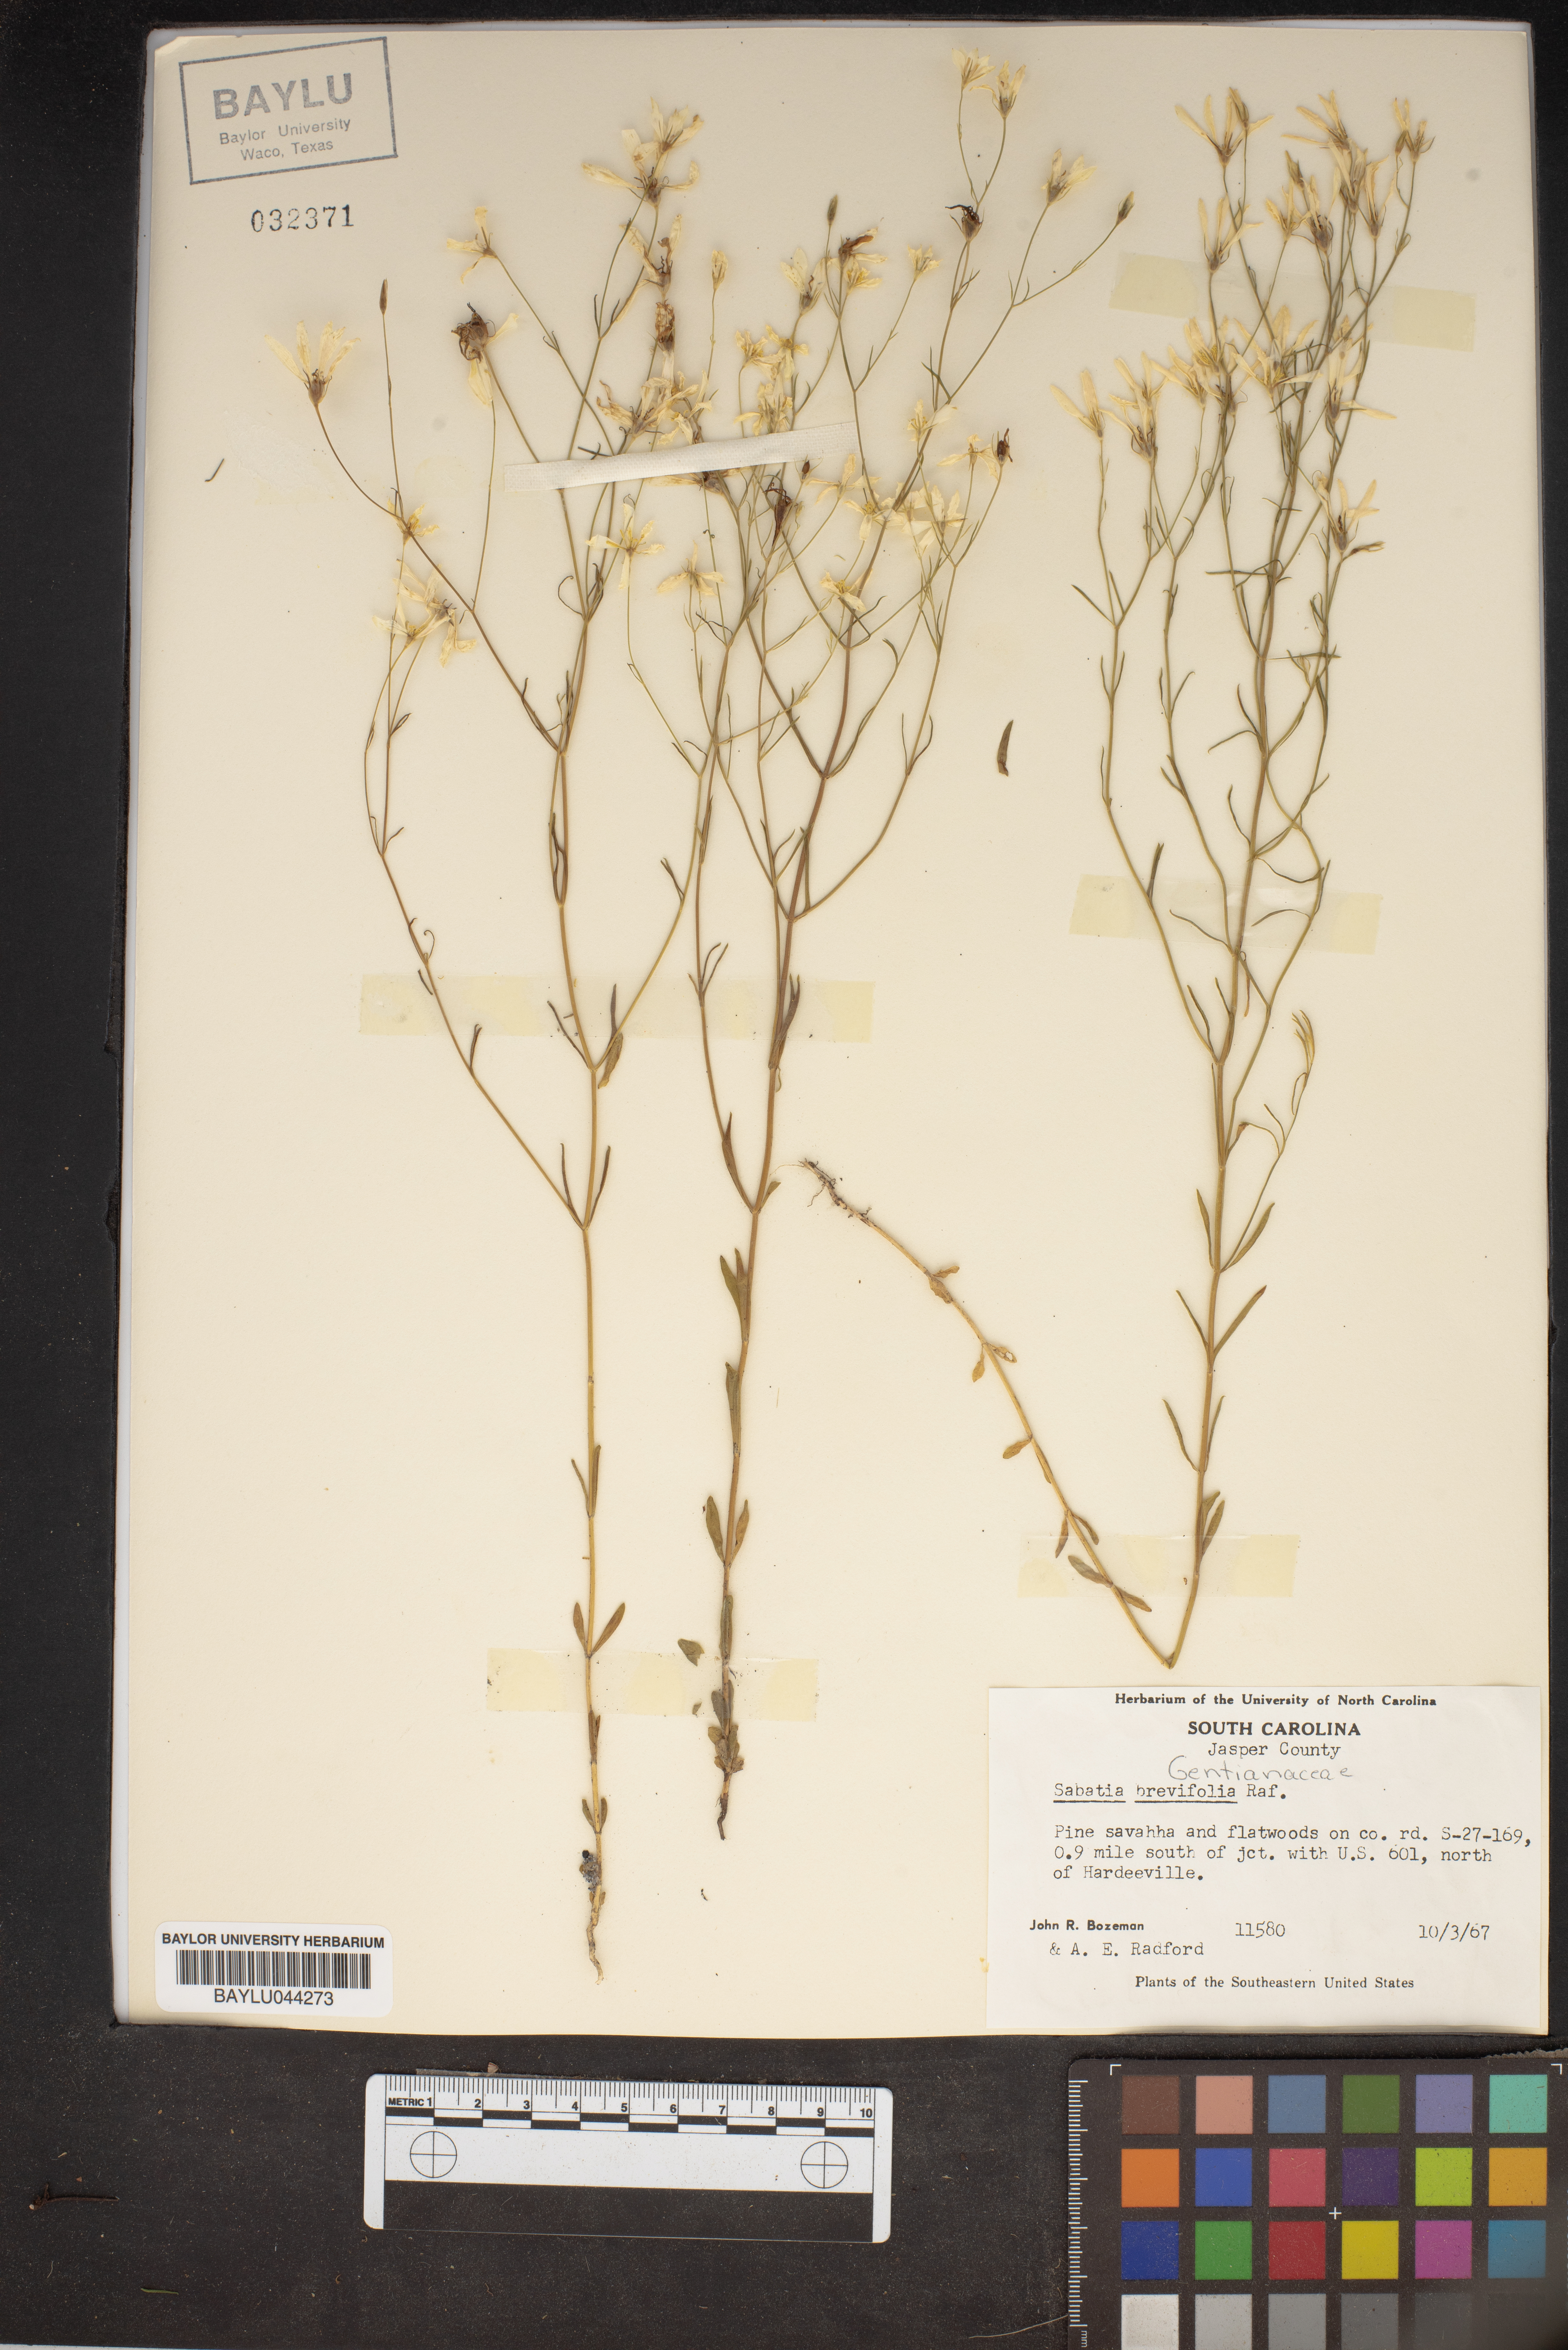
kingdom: Plantae
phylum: Tracheophyta
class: Magnoliopsida
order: Gentianales
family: Gentianaceae
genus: Sabatia
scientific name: Sabatia brevifolia
